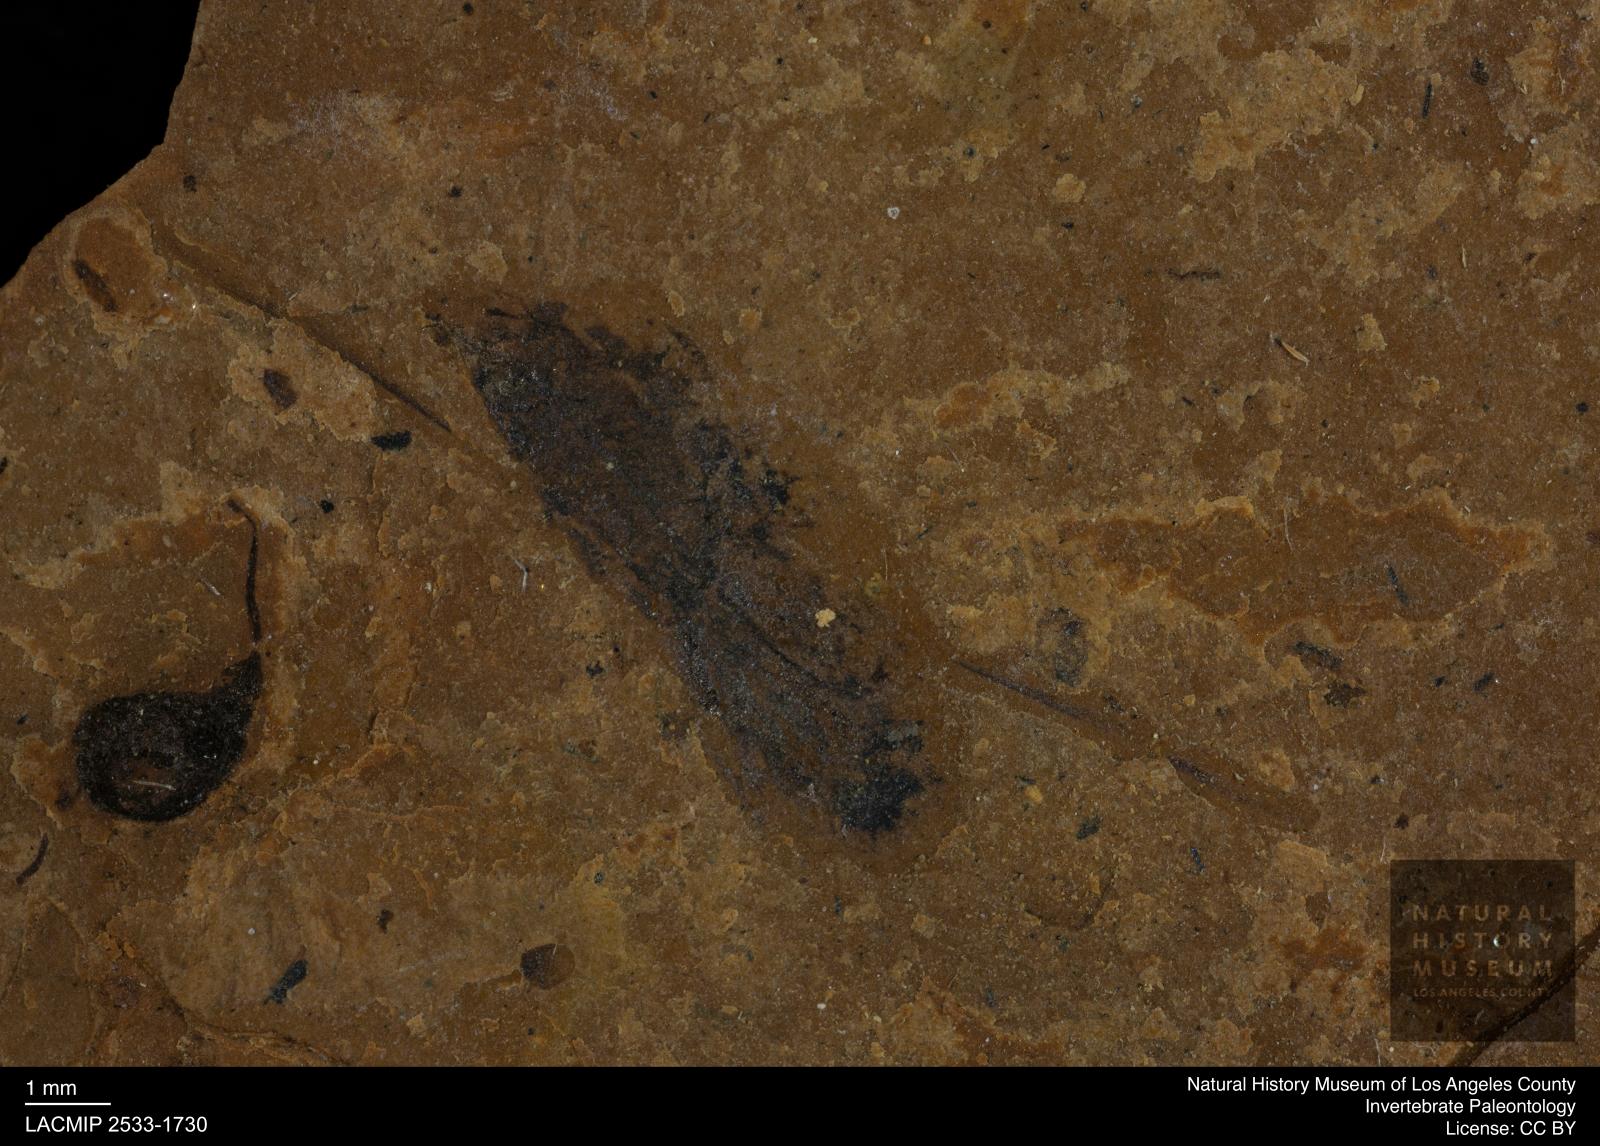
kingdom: Animalia
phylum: Arthropoda
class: Insecta
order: Hemiptera
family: Notonectidae
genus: Notonecta
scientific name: Notonecta
